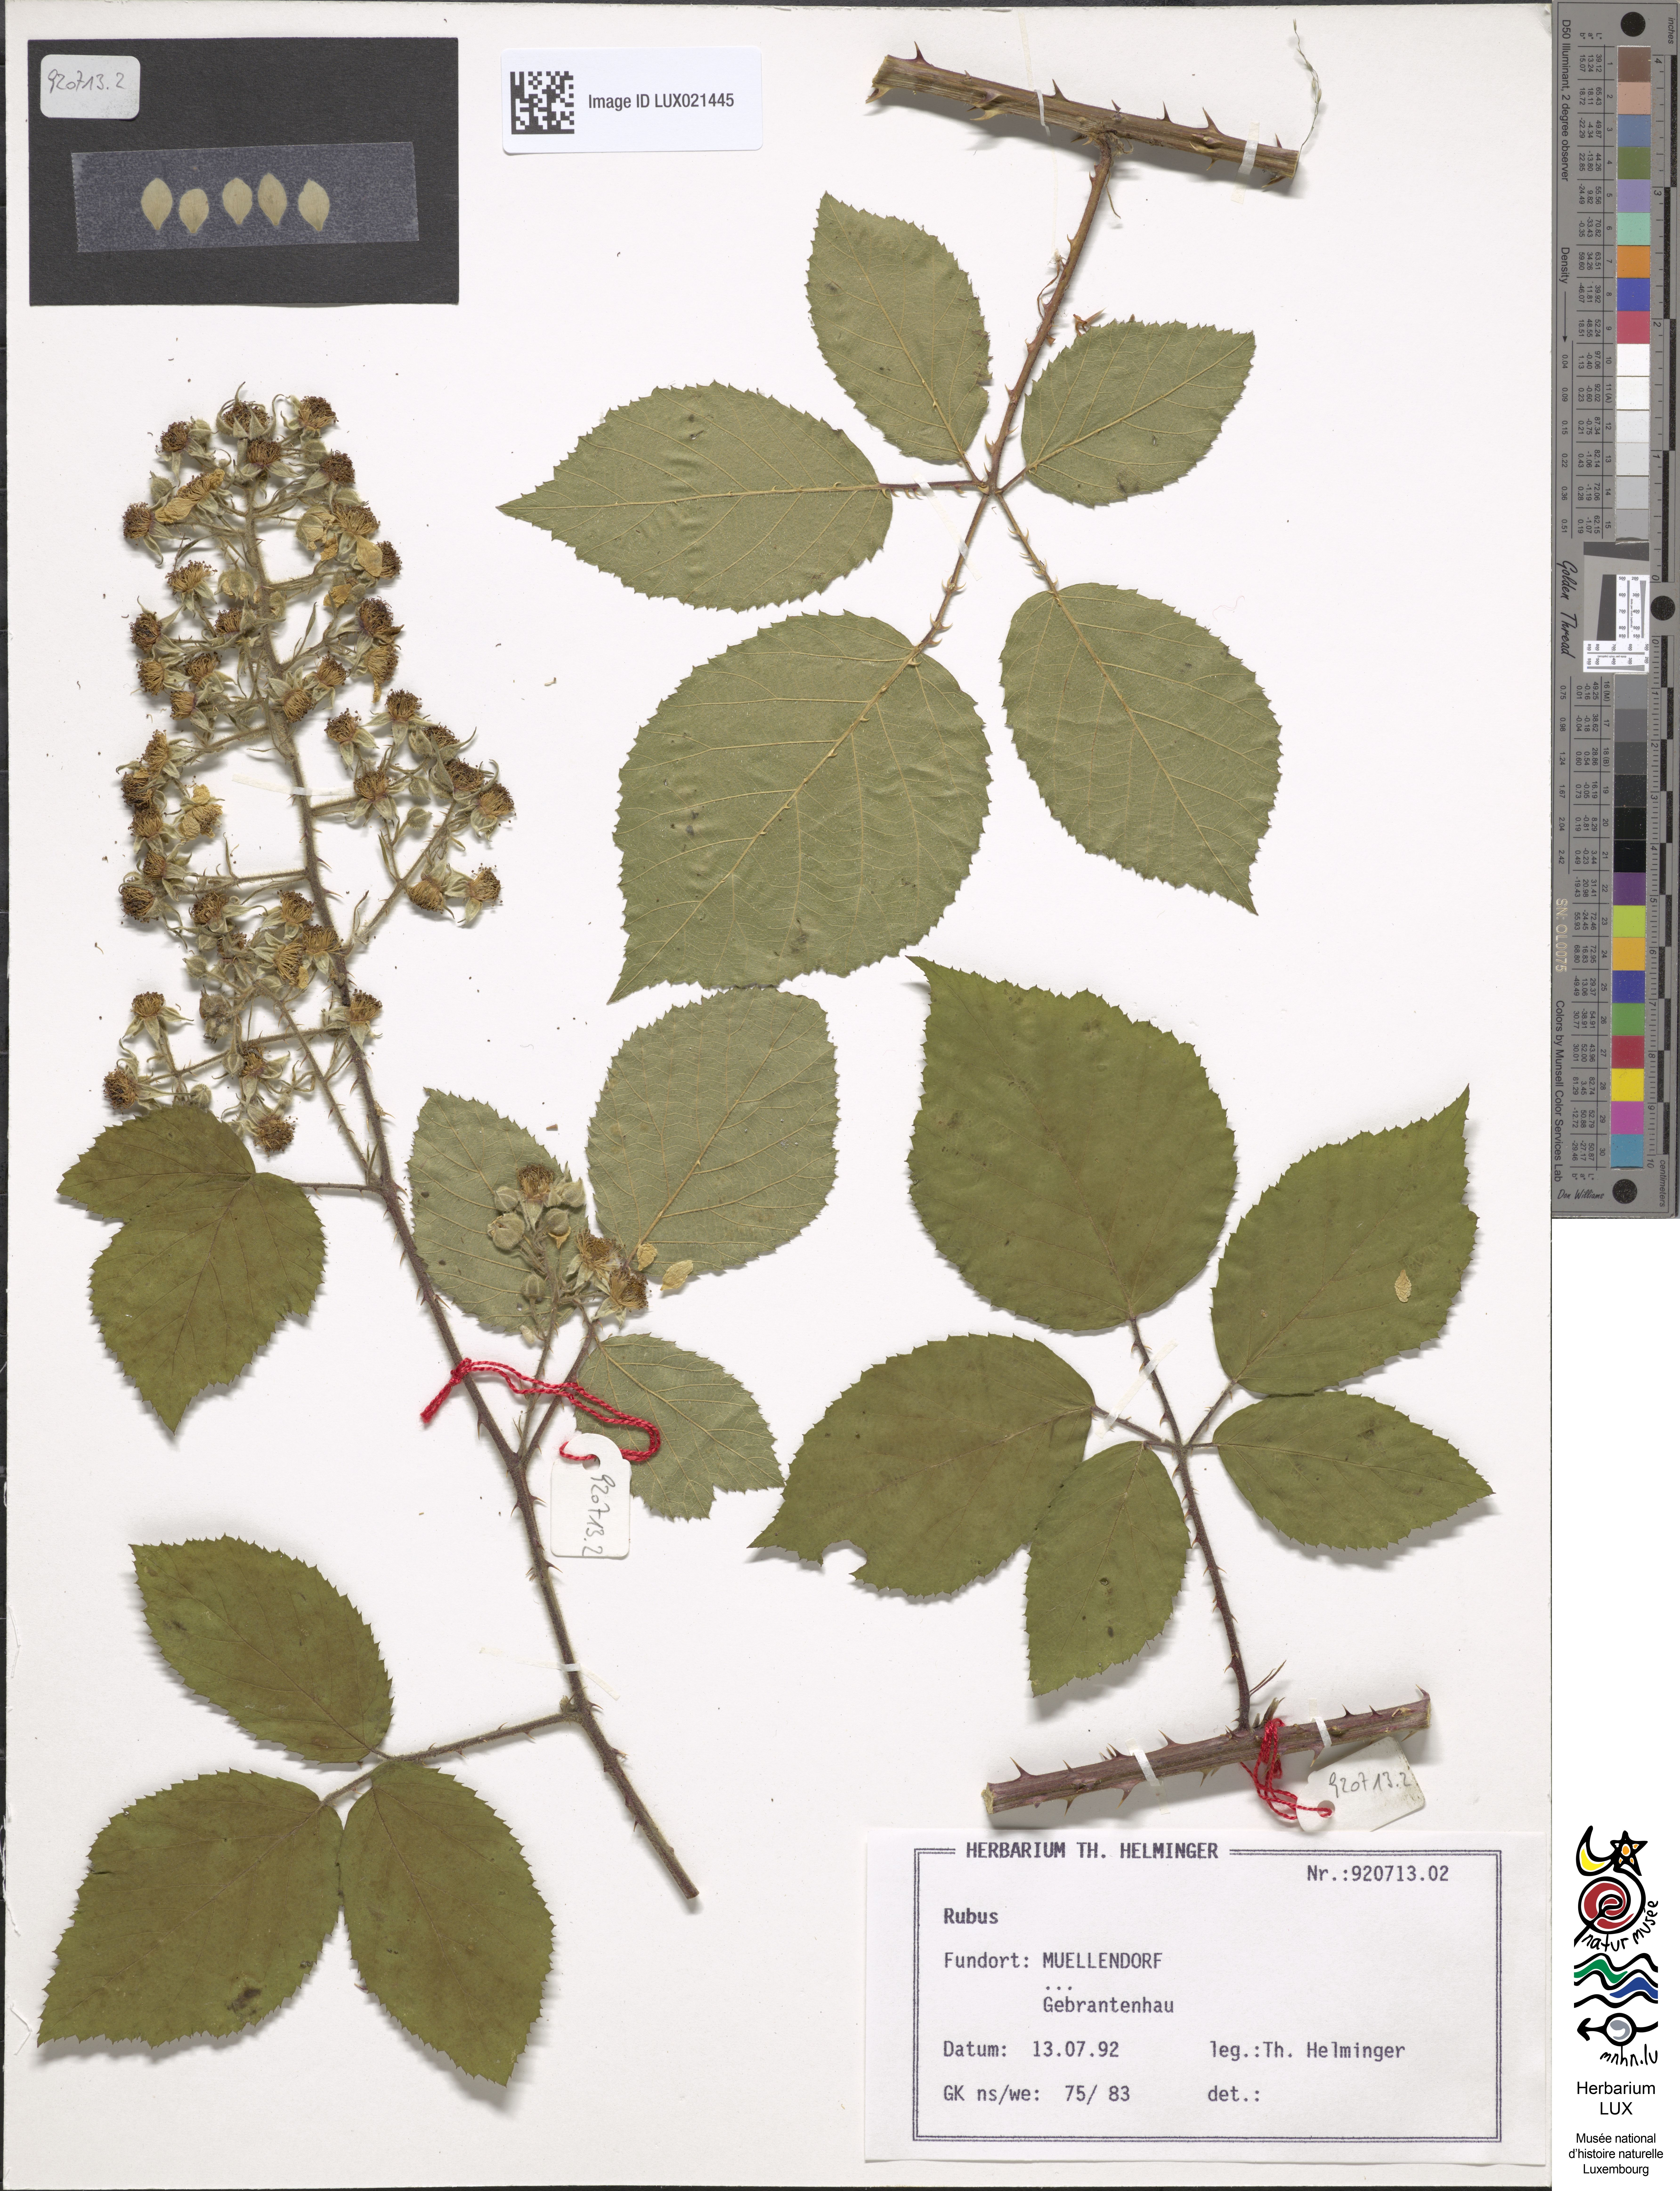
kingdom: Plantae
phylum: Tracheophyta
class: Magnoliopsida
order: Rosales
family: Rosaceae
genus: Rubus
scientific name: Rubus
